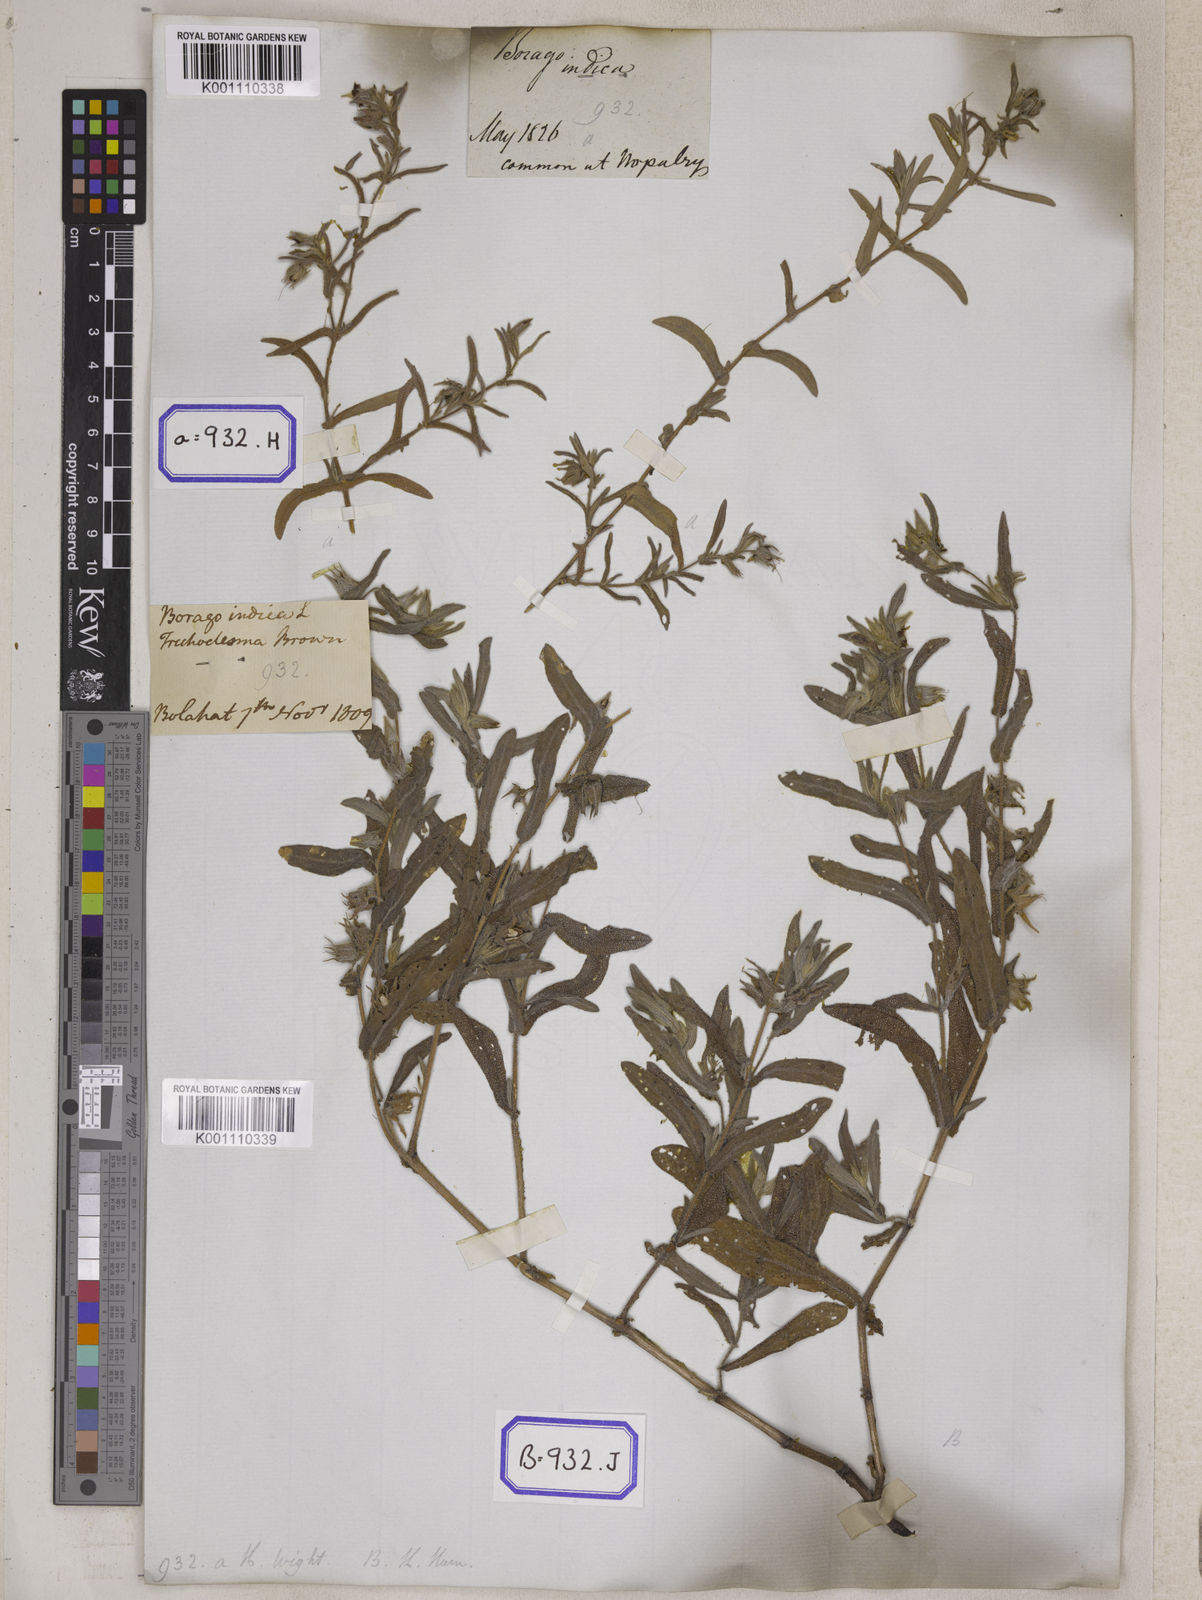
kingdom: Plantae
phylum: Tracheophyta
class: Magnoliopsida
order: Boraginales
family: Boraginaceae
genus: Trichodesma
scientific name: Trichodesma
